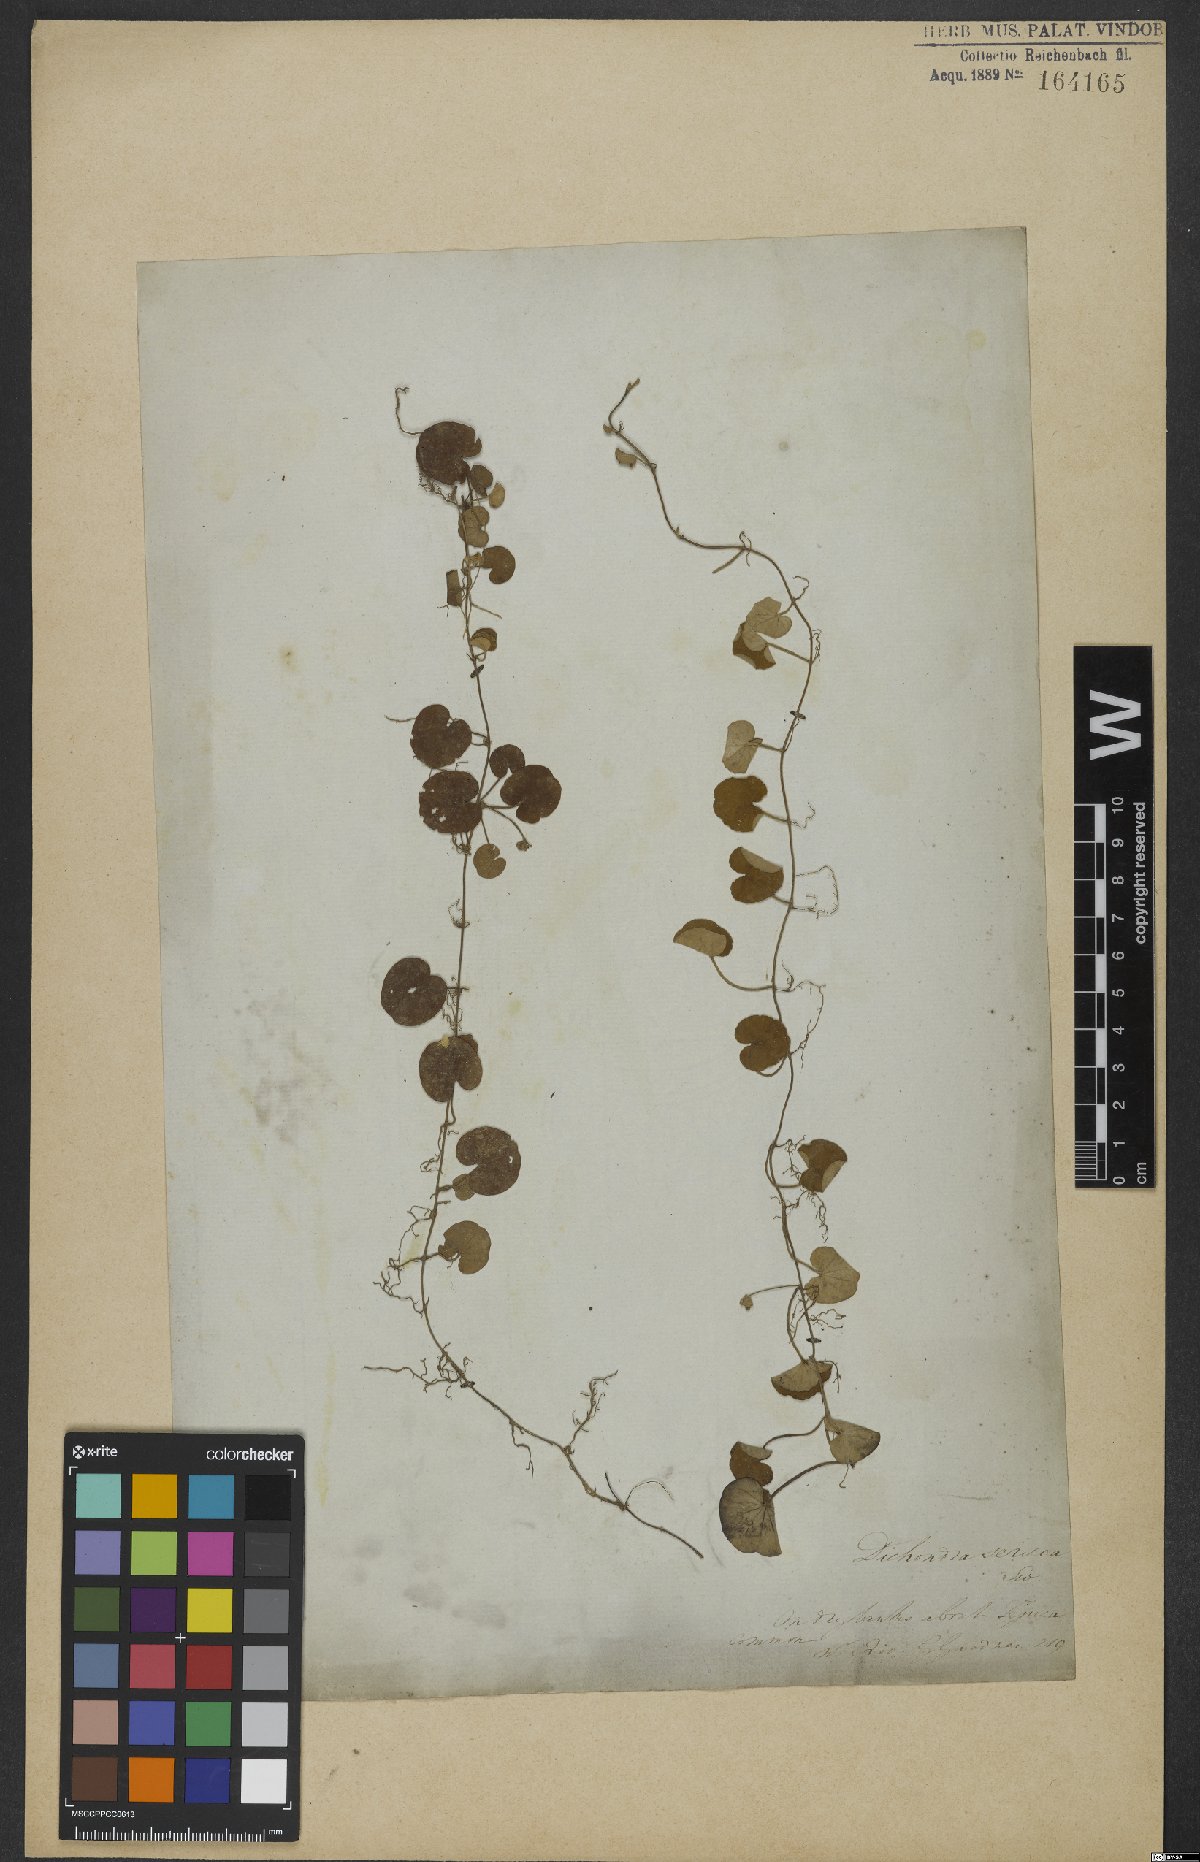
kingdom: Plantae
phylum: Tracheophyta
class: Magnoliopsida
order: Solanales
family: Convolvulaceae
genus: Dichondra
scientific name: Dichondra repens
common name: Kidneyweed
